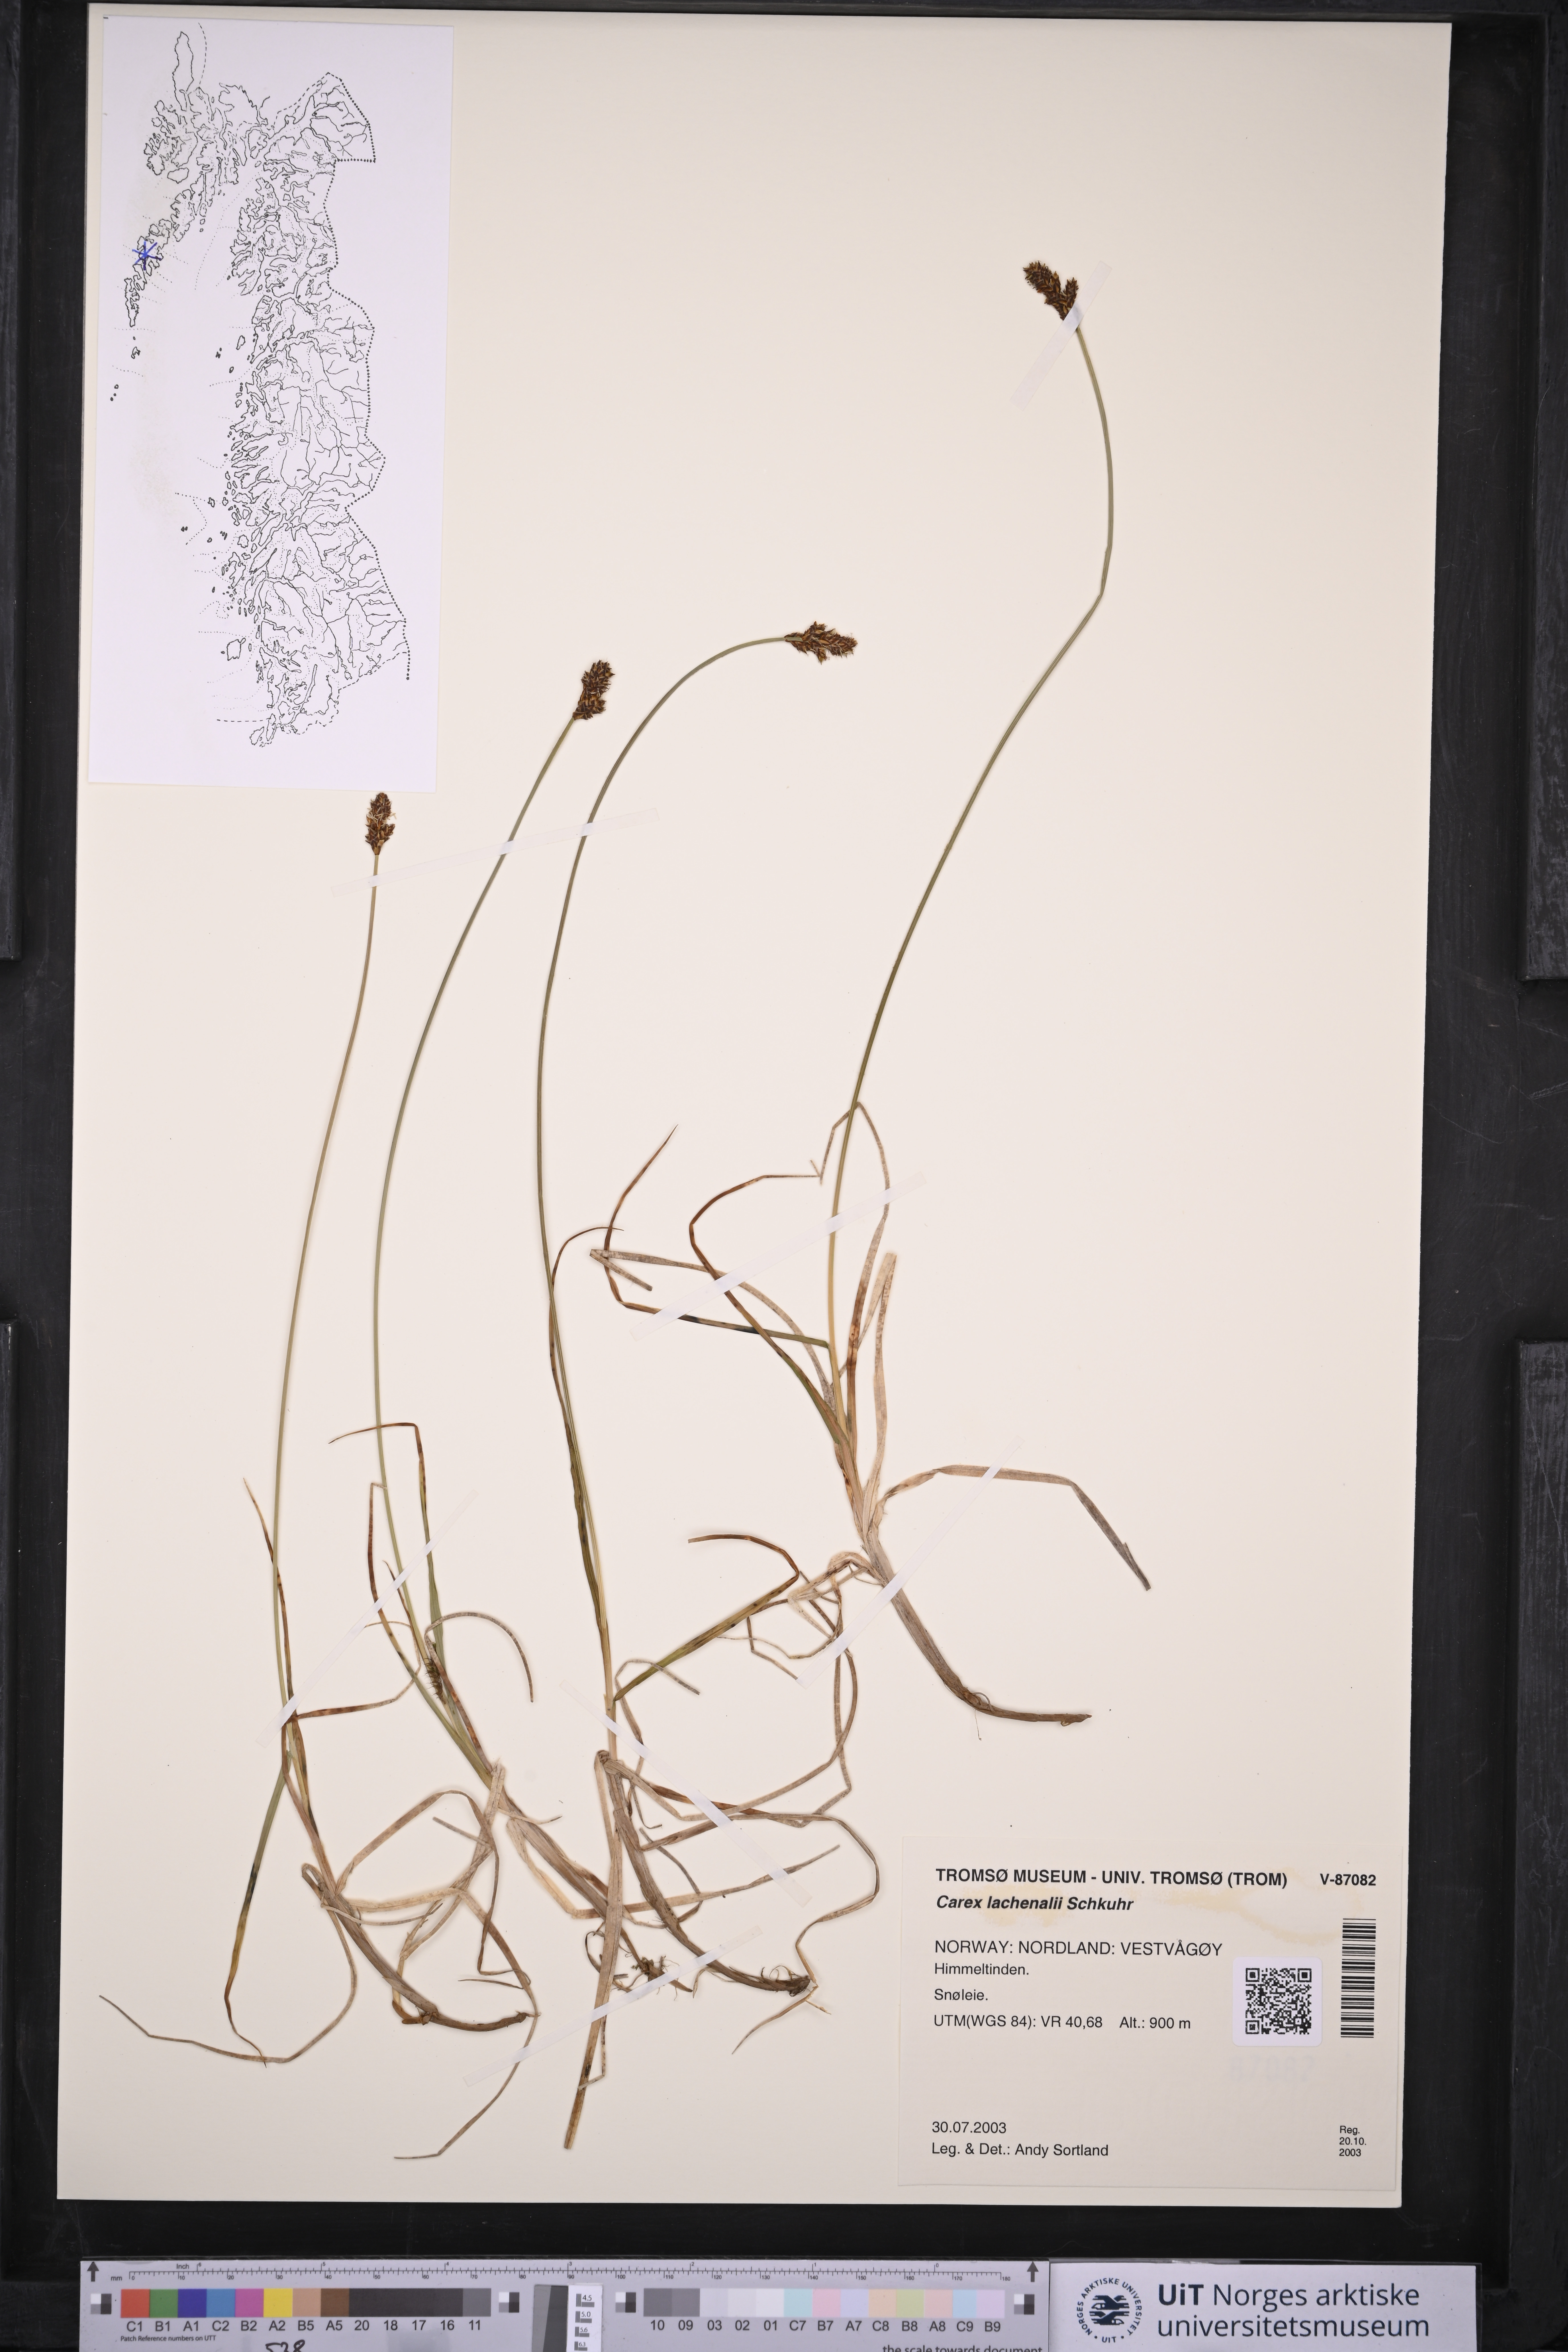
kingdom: Plantae
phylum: Tracheophyta
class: Liliopsida
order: Poales
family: Cyperaceae
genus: Carex
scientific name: Carex lachenalii
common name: Hare's-foot sedge
